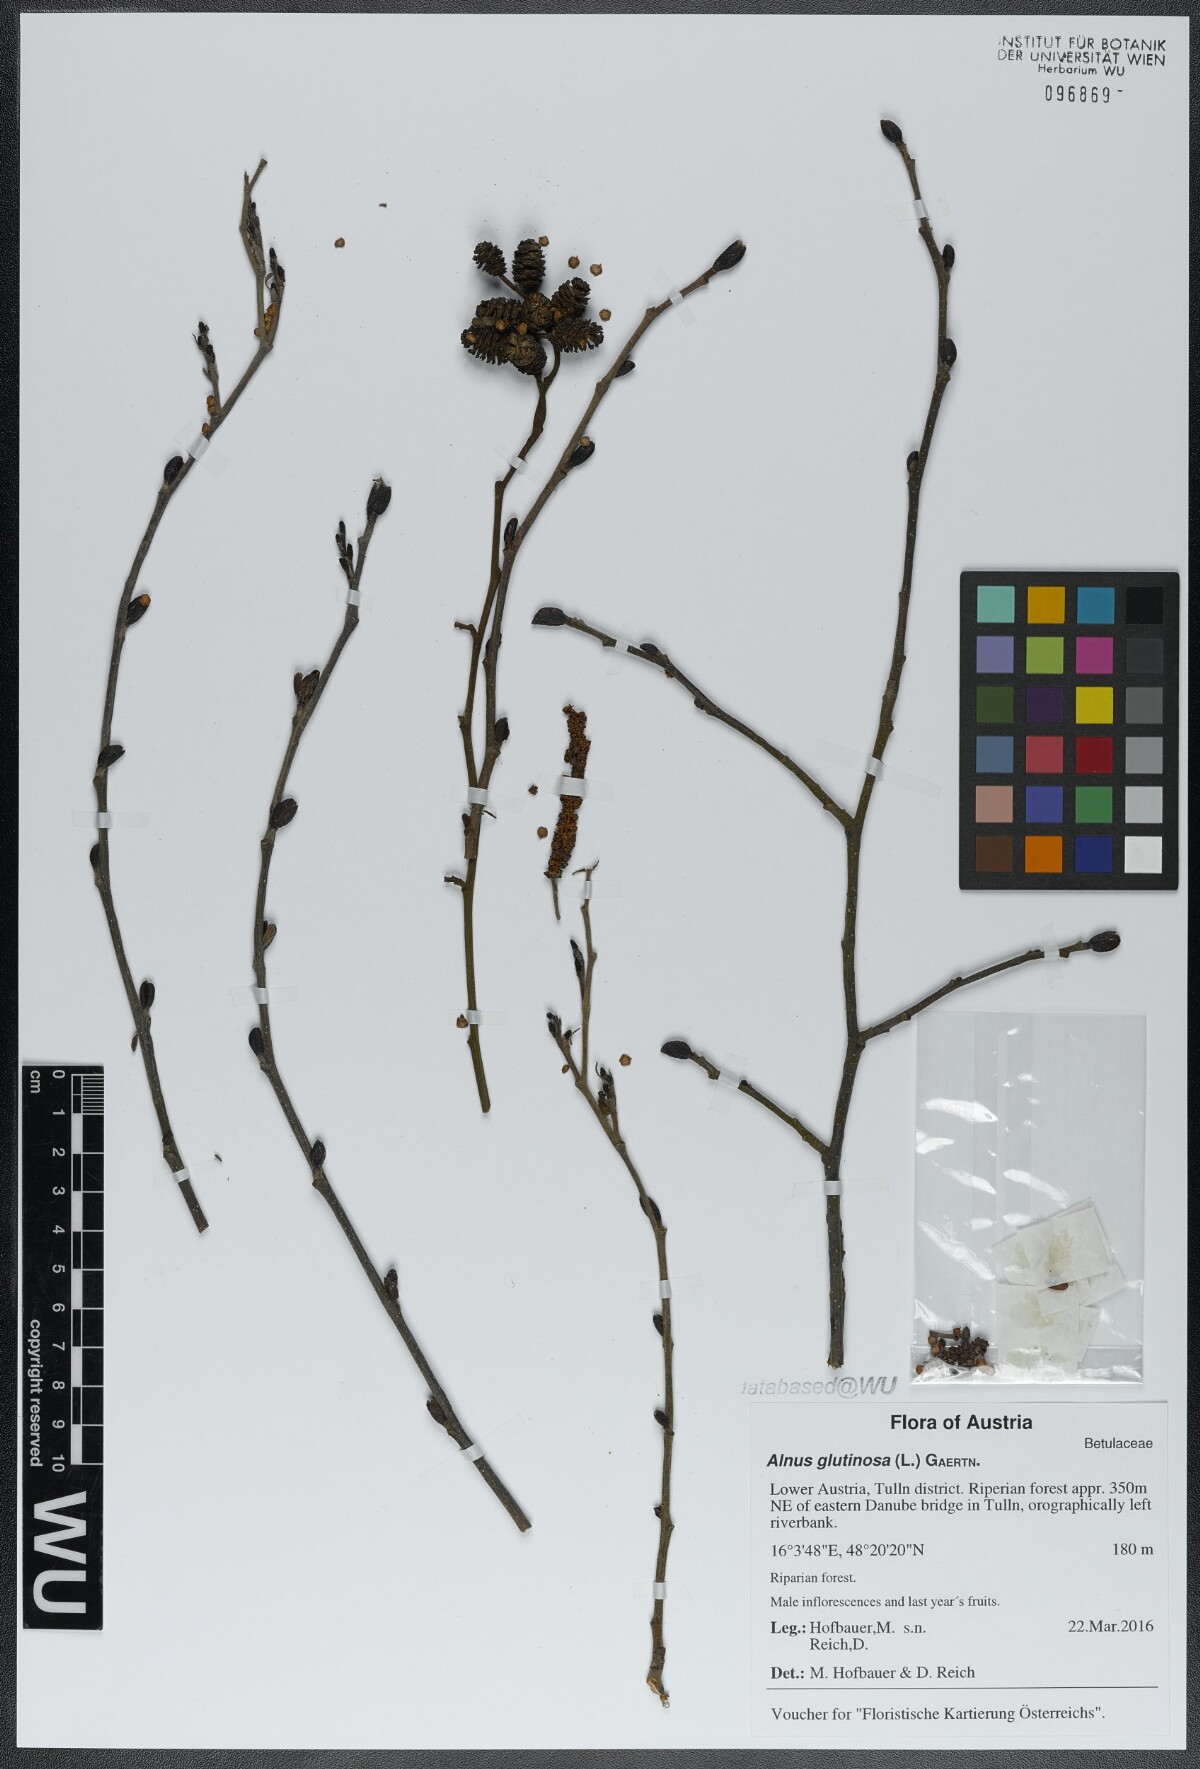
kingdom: Plantae
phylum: Tracheophyta
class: Magnoliopsida
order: Fagales
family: Betulaceae
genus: Alnus
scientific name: Alnus glutinosa
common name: Black alder
